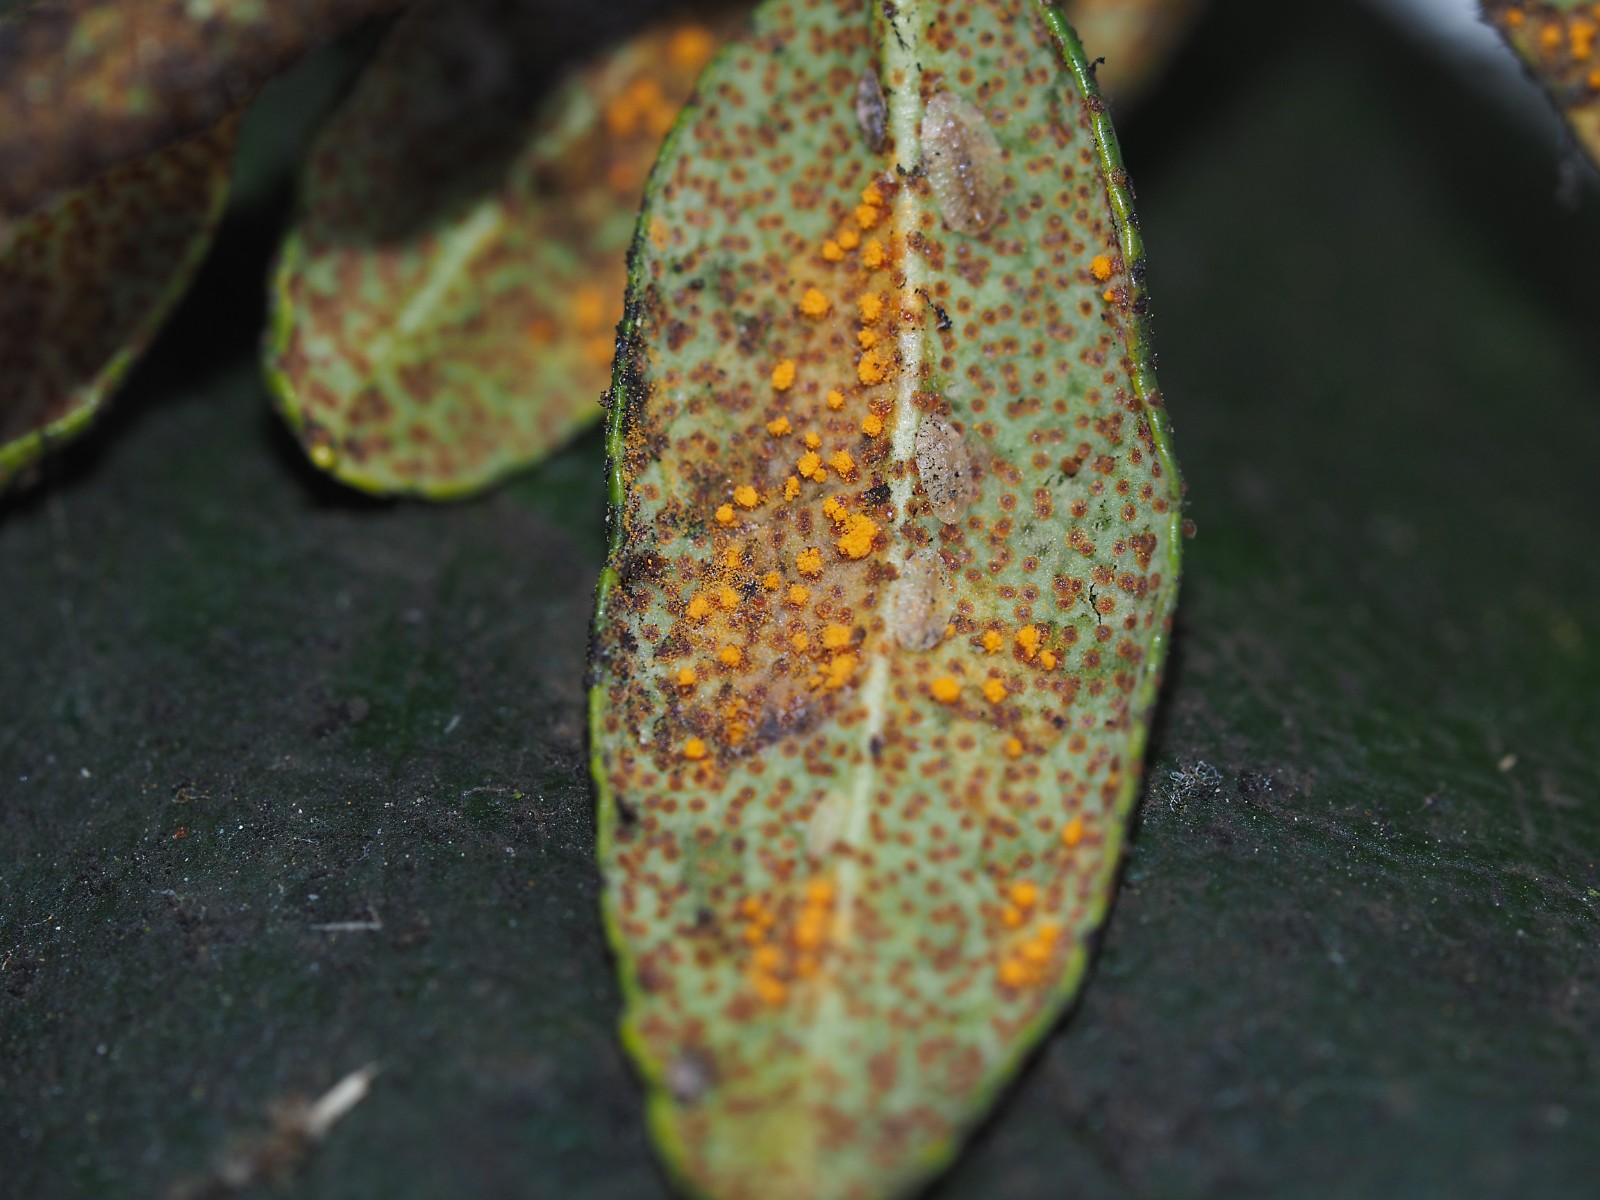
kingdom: Fungi
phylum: Basidiomycota
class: Pucciniomycetes
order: Pucciniales
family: Coleosporiaceae
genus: Chrysomyxa
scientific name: Chrysomyxa rhododendri
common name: Rhododendron-spruce needle rust
